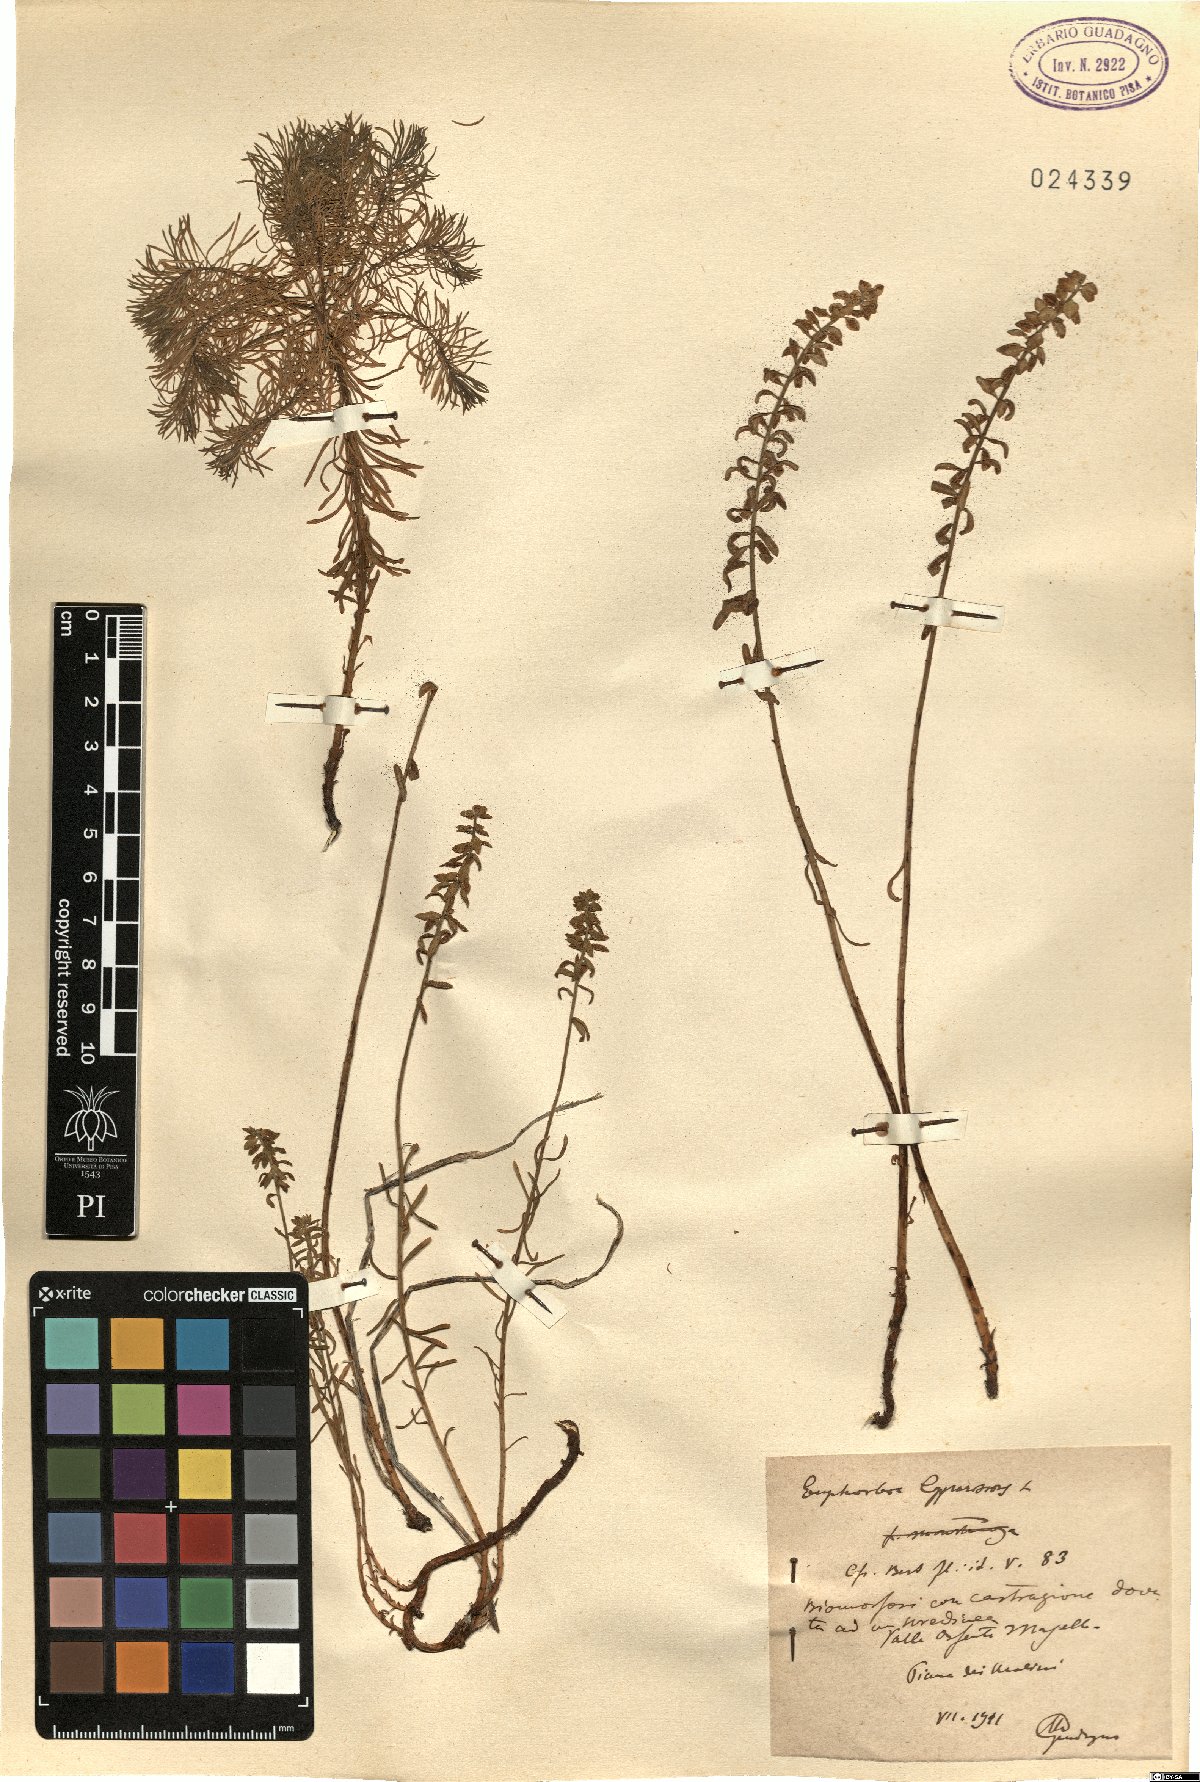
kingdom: Plantae
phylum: Tracheophyta
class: Magnoliopsida
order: Malpighiales
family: Euphorbiaceae
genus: Euphorbia
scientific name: Euphorbia cyparissias
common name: Cypress spurge
